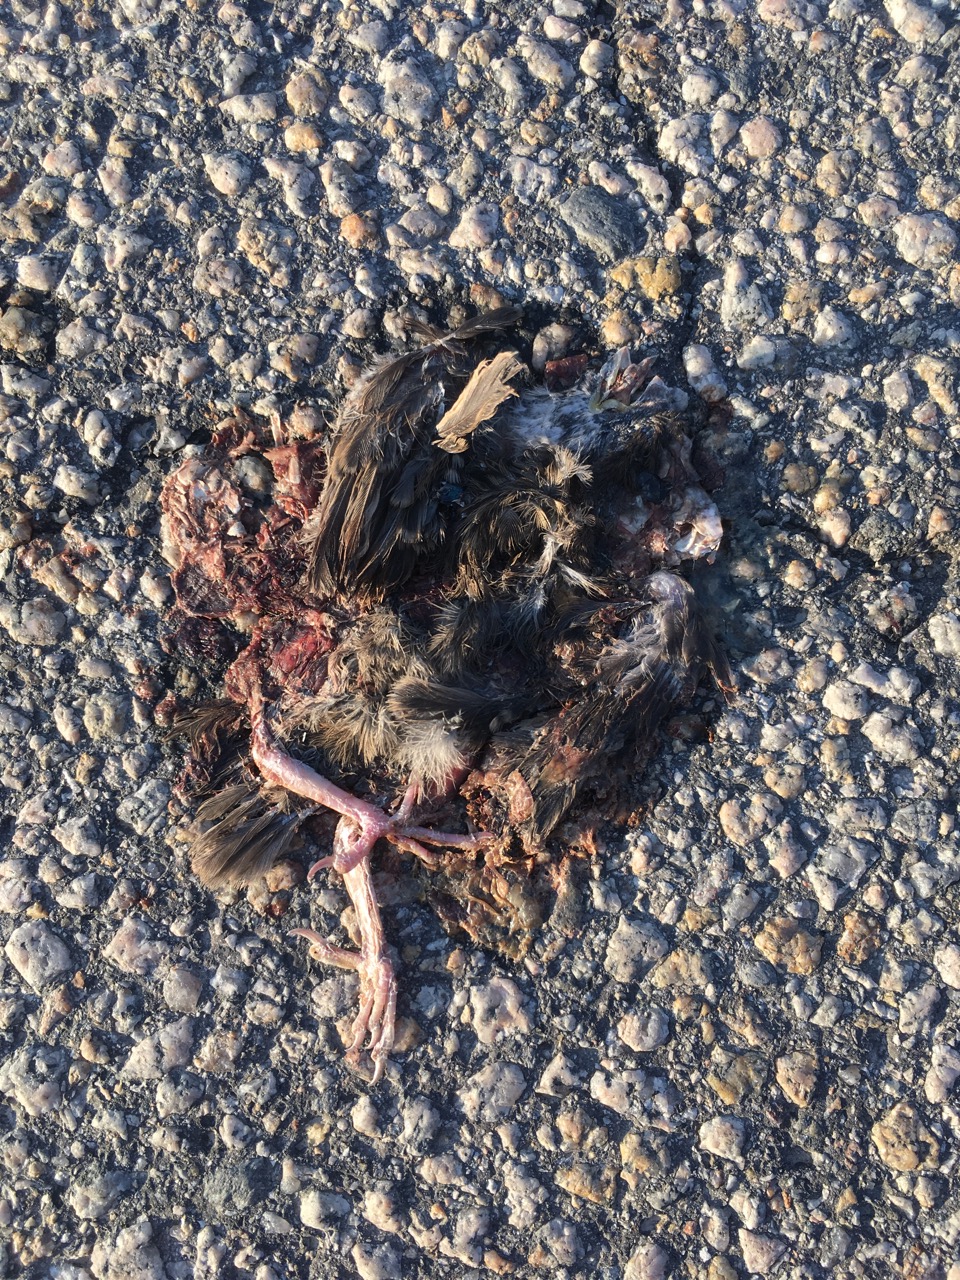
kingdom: Animalia
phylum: Chordata
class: Aves
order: Passeriformes
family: Passeridae
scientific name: Passeridae
